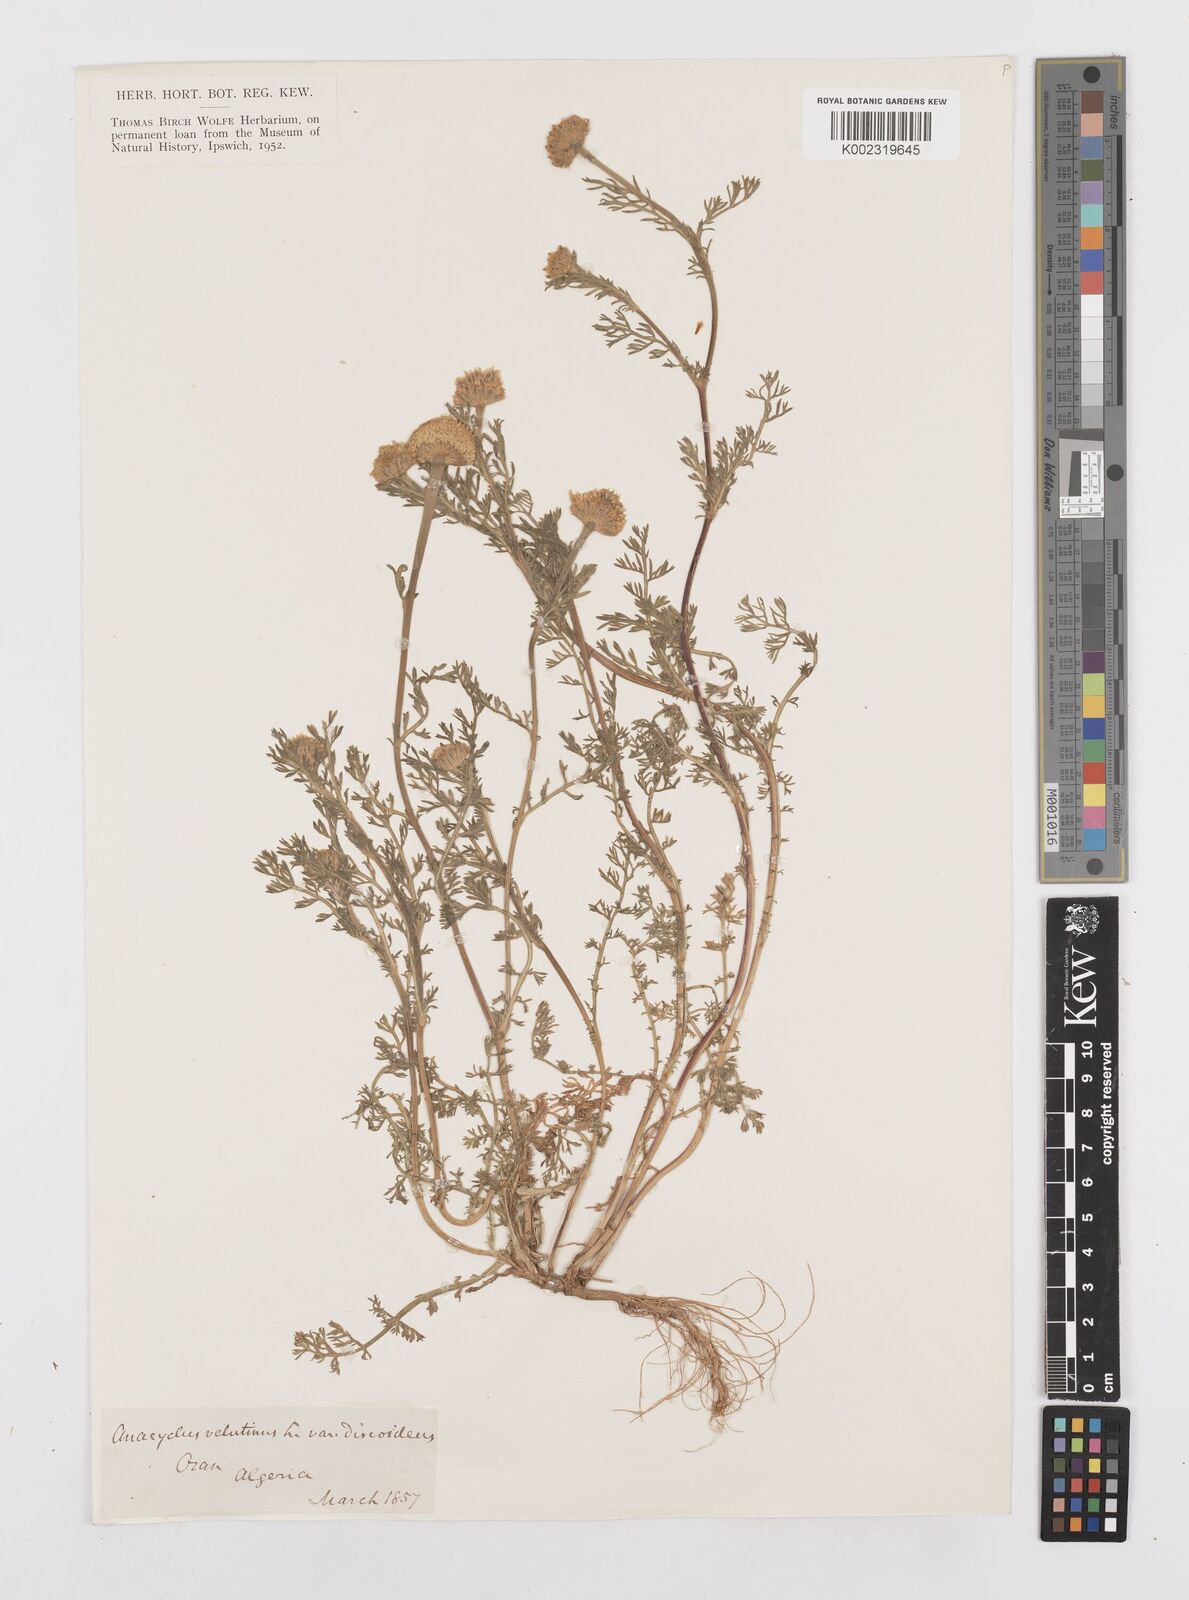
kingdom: Plantae
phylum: Tracheophyta
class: Magnoliopsida
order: Asterales
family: Asteraceae
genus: Anacyclus
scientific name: Anacyclus valentinus
